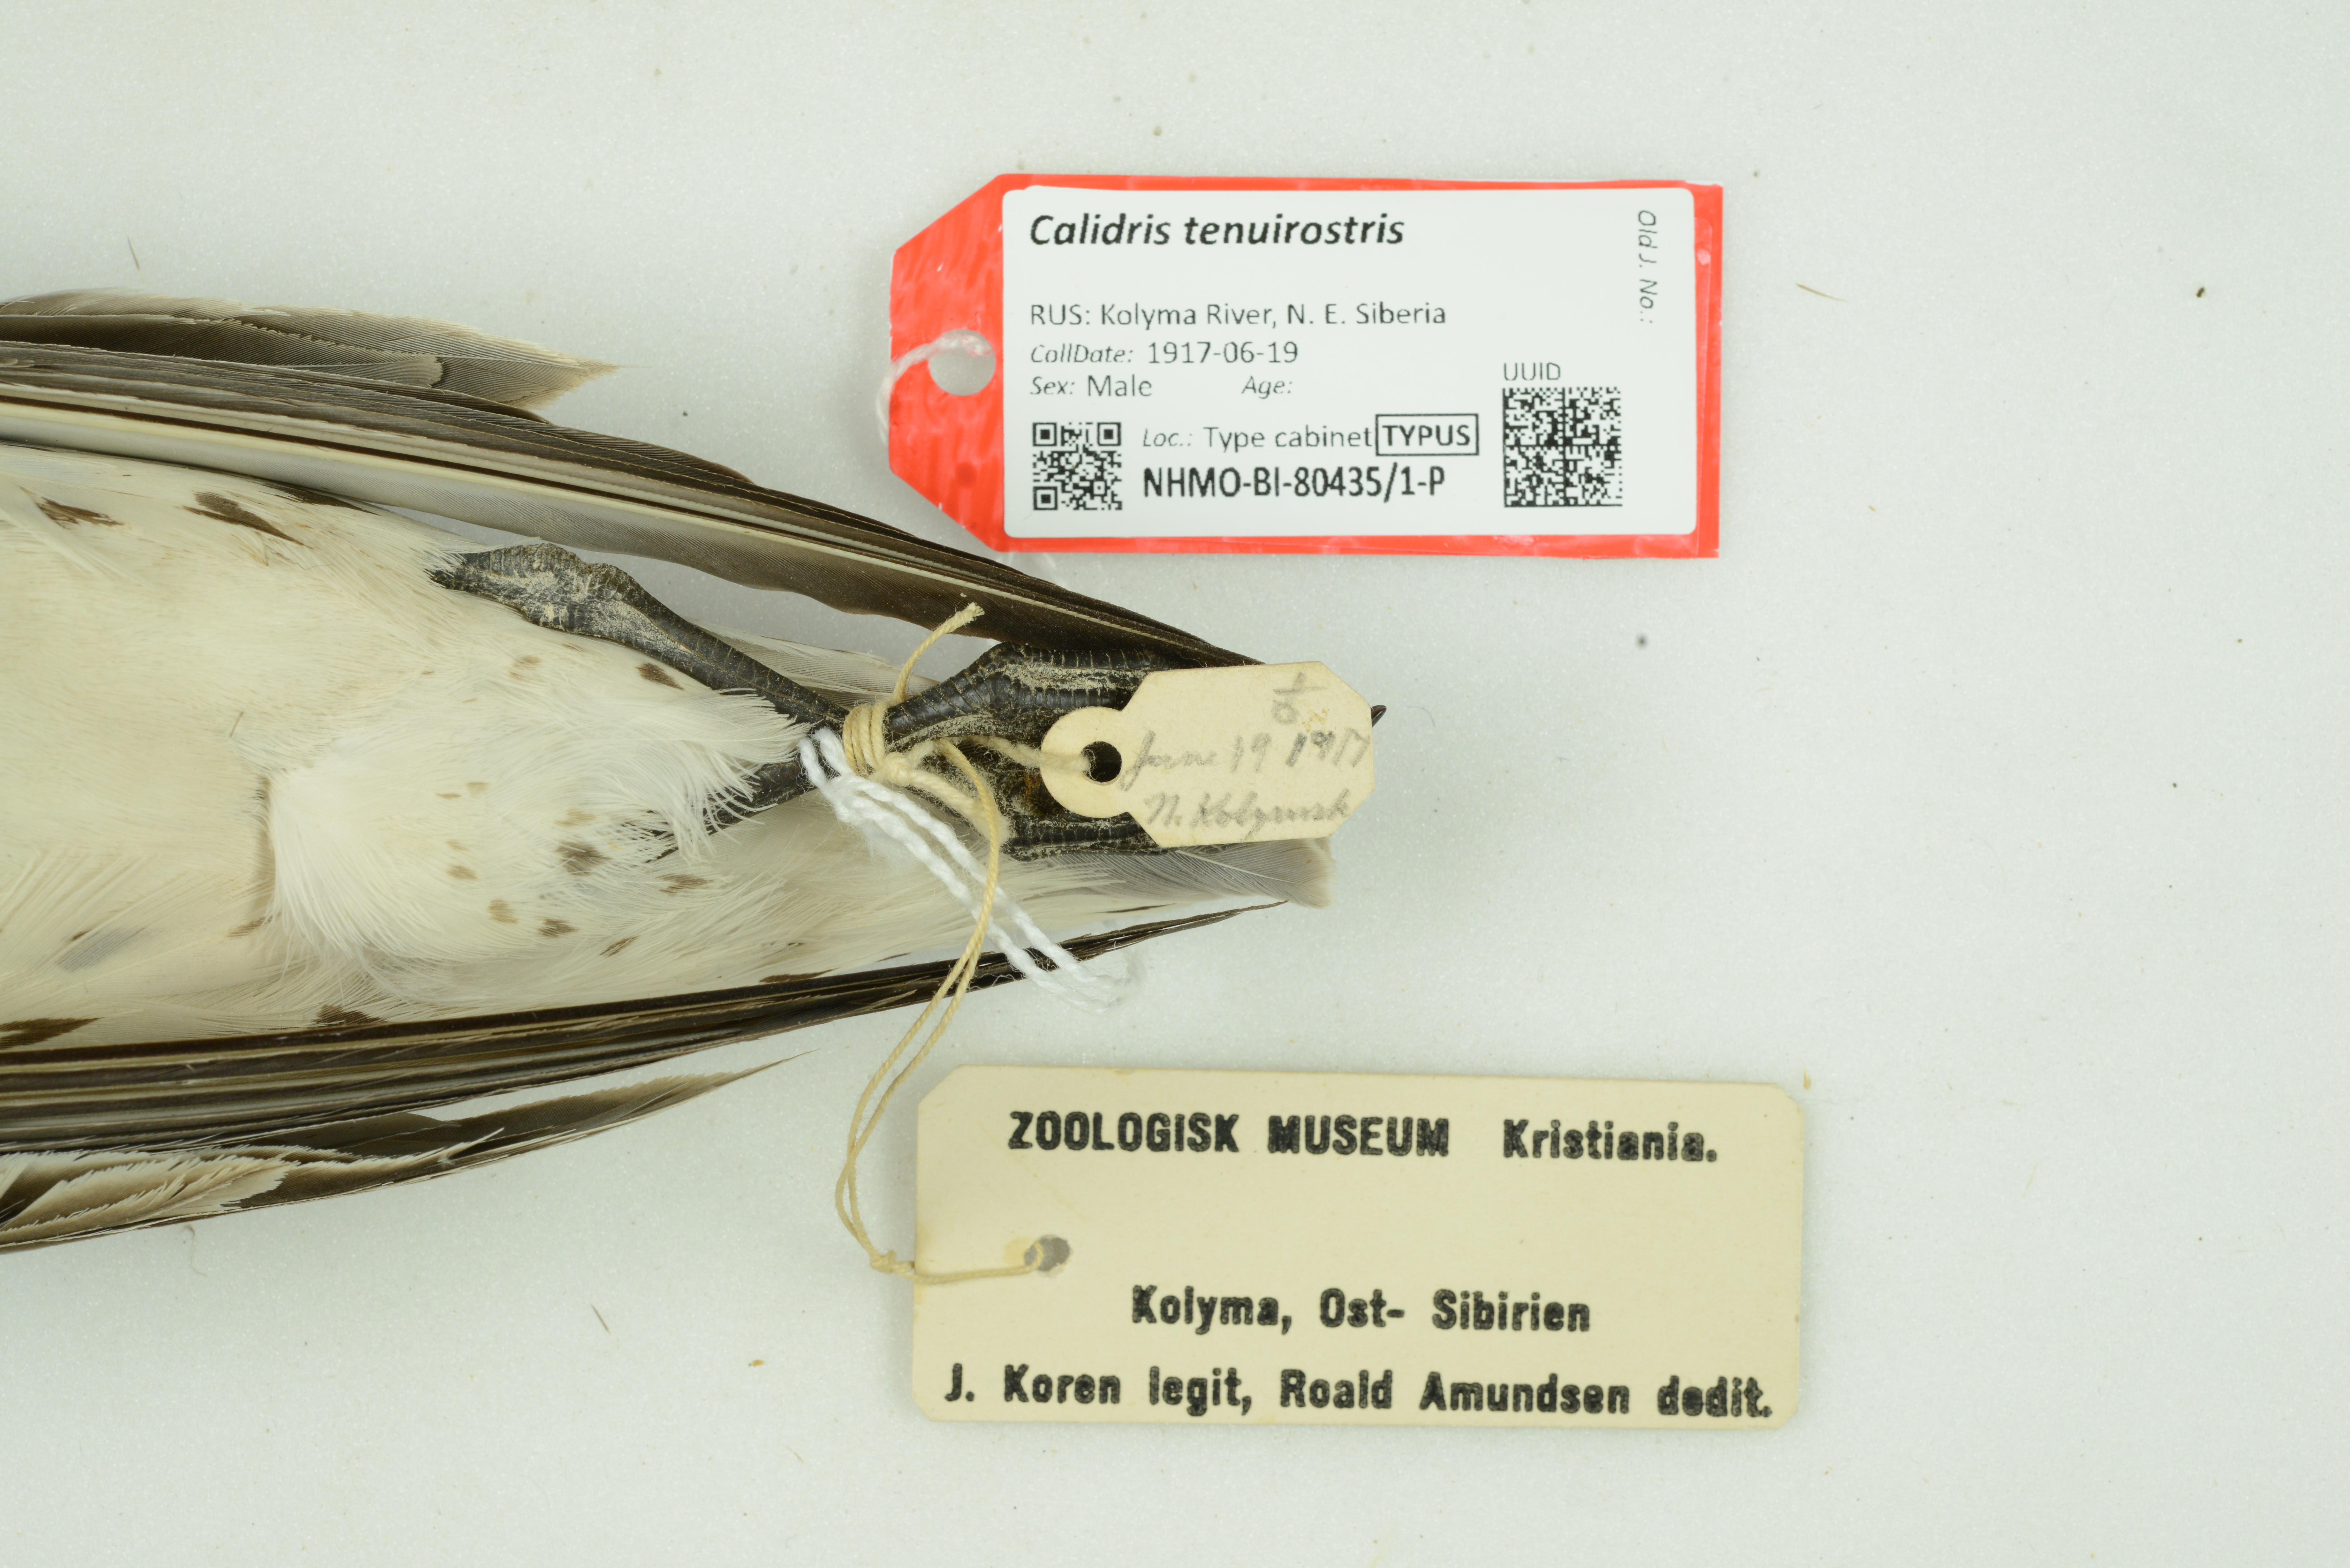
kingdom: Animalia
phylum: Chordata
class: Aves
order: Charadriiformes
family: Scolopacidae
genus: Calidris
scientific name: Calidris tenuirostris
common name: Great knot
